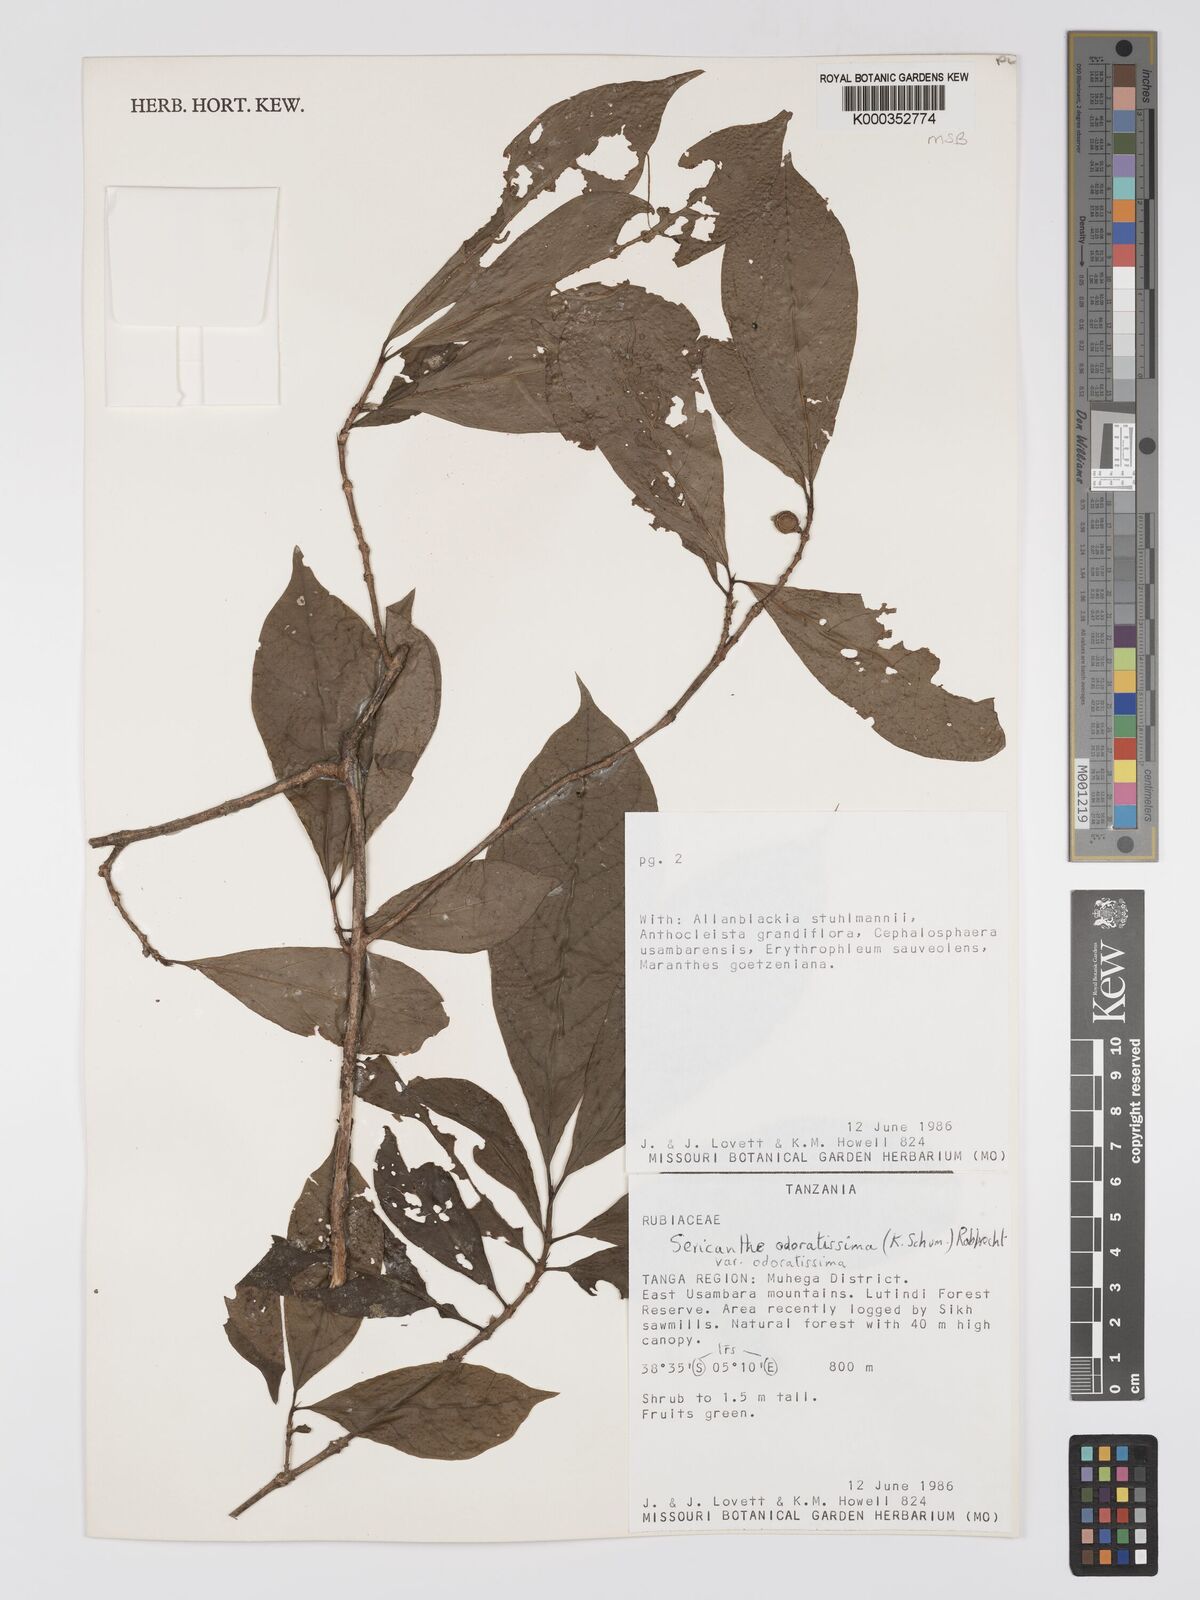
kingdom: Plantae
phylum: Tracheophyta
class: Magnoliopsida
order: Gentianales
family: Rubiaceae
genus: Sericanthe
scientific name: Sericanthe odoratissima
